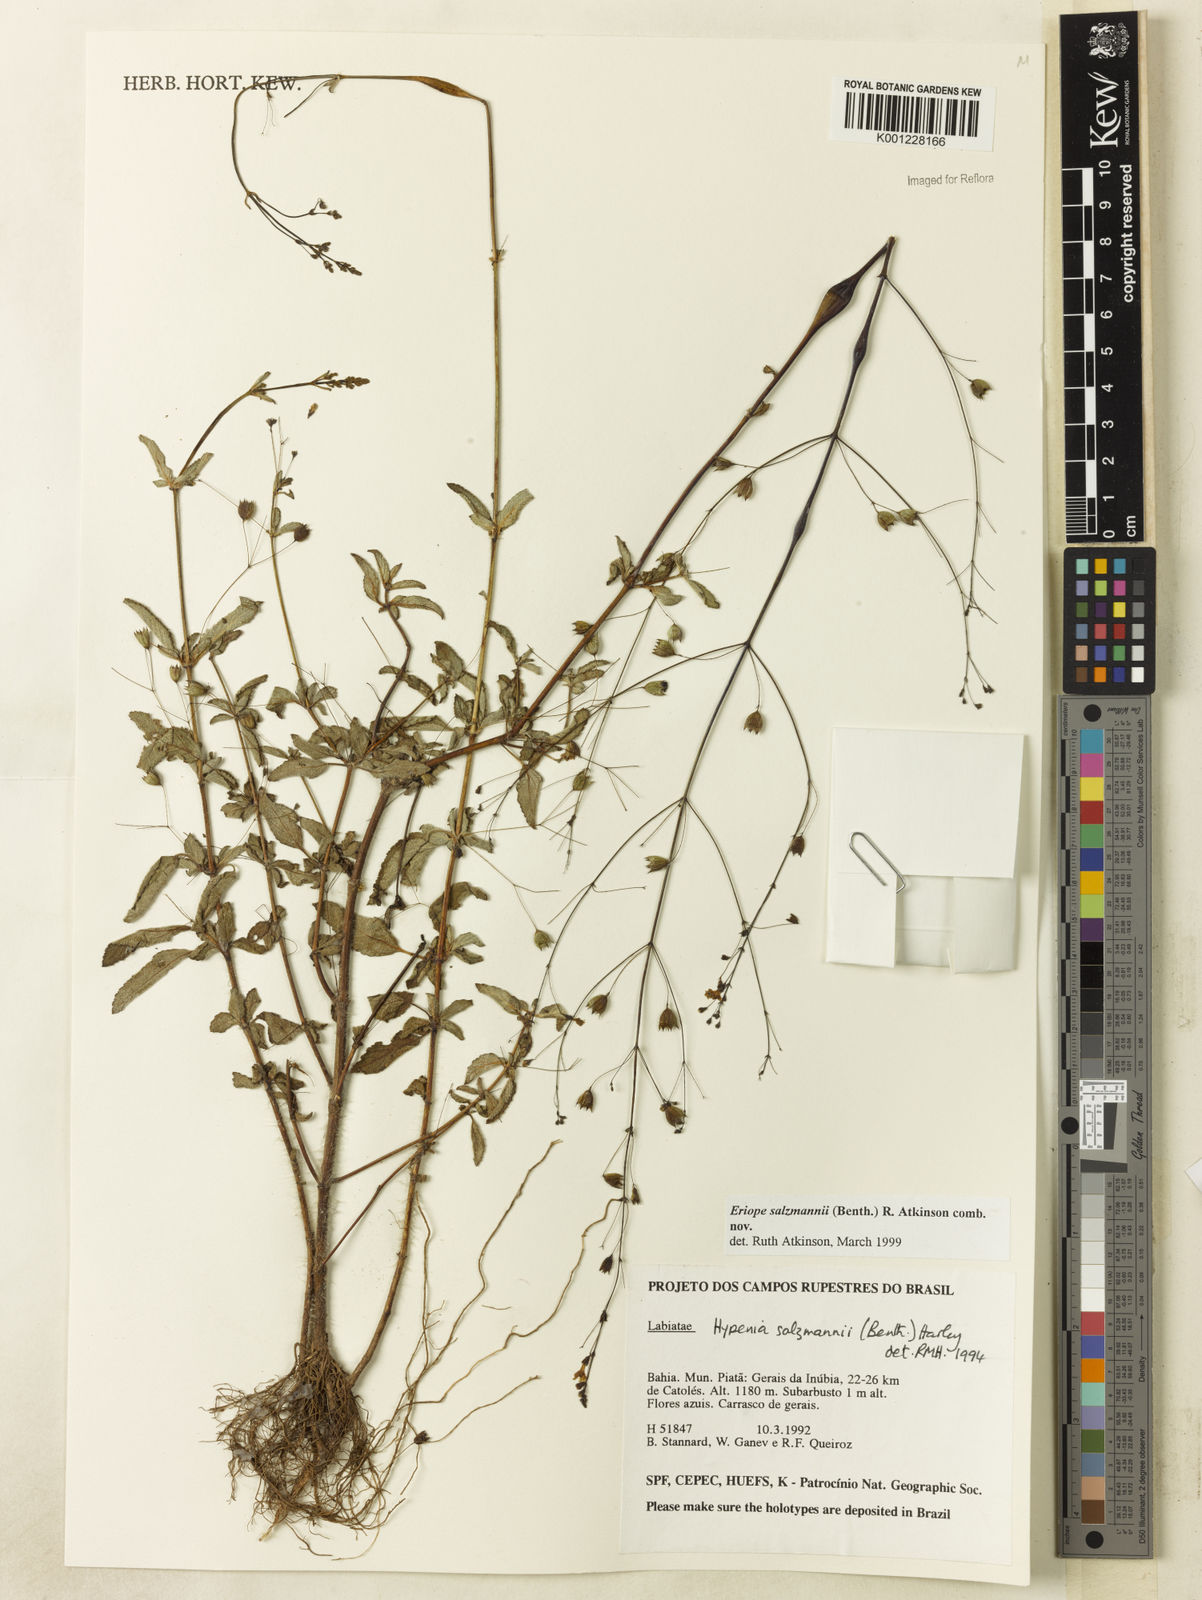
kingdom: Plantae
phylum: Tracheophyta
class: Magnoliopsida
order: Lamiales
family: Lamiaceae
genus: Hypenia
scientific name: Hypenia salzmannii
